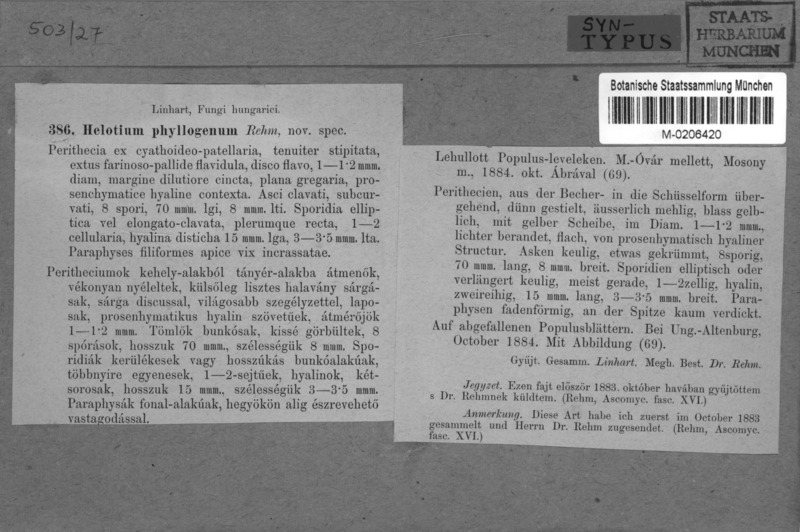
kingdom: Fungi
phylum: Ascomycota
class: Leotiomycetes
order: Helotiales
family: Helotiaceae
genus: Hymenoscyphus
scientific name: Hymenoscyphus phyllogenus
